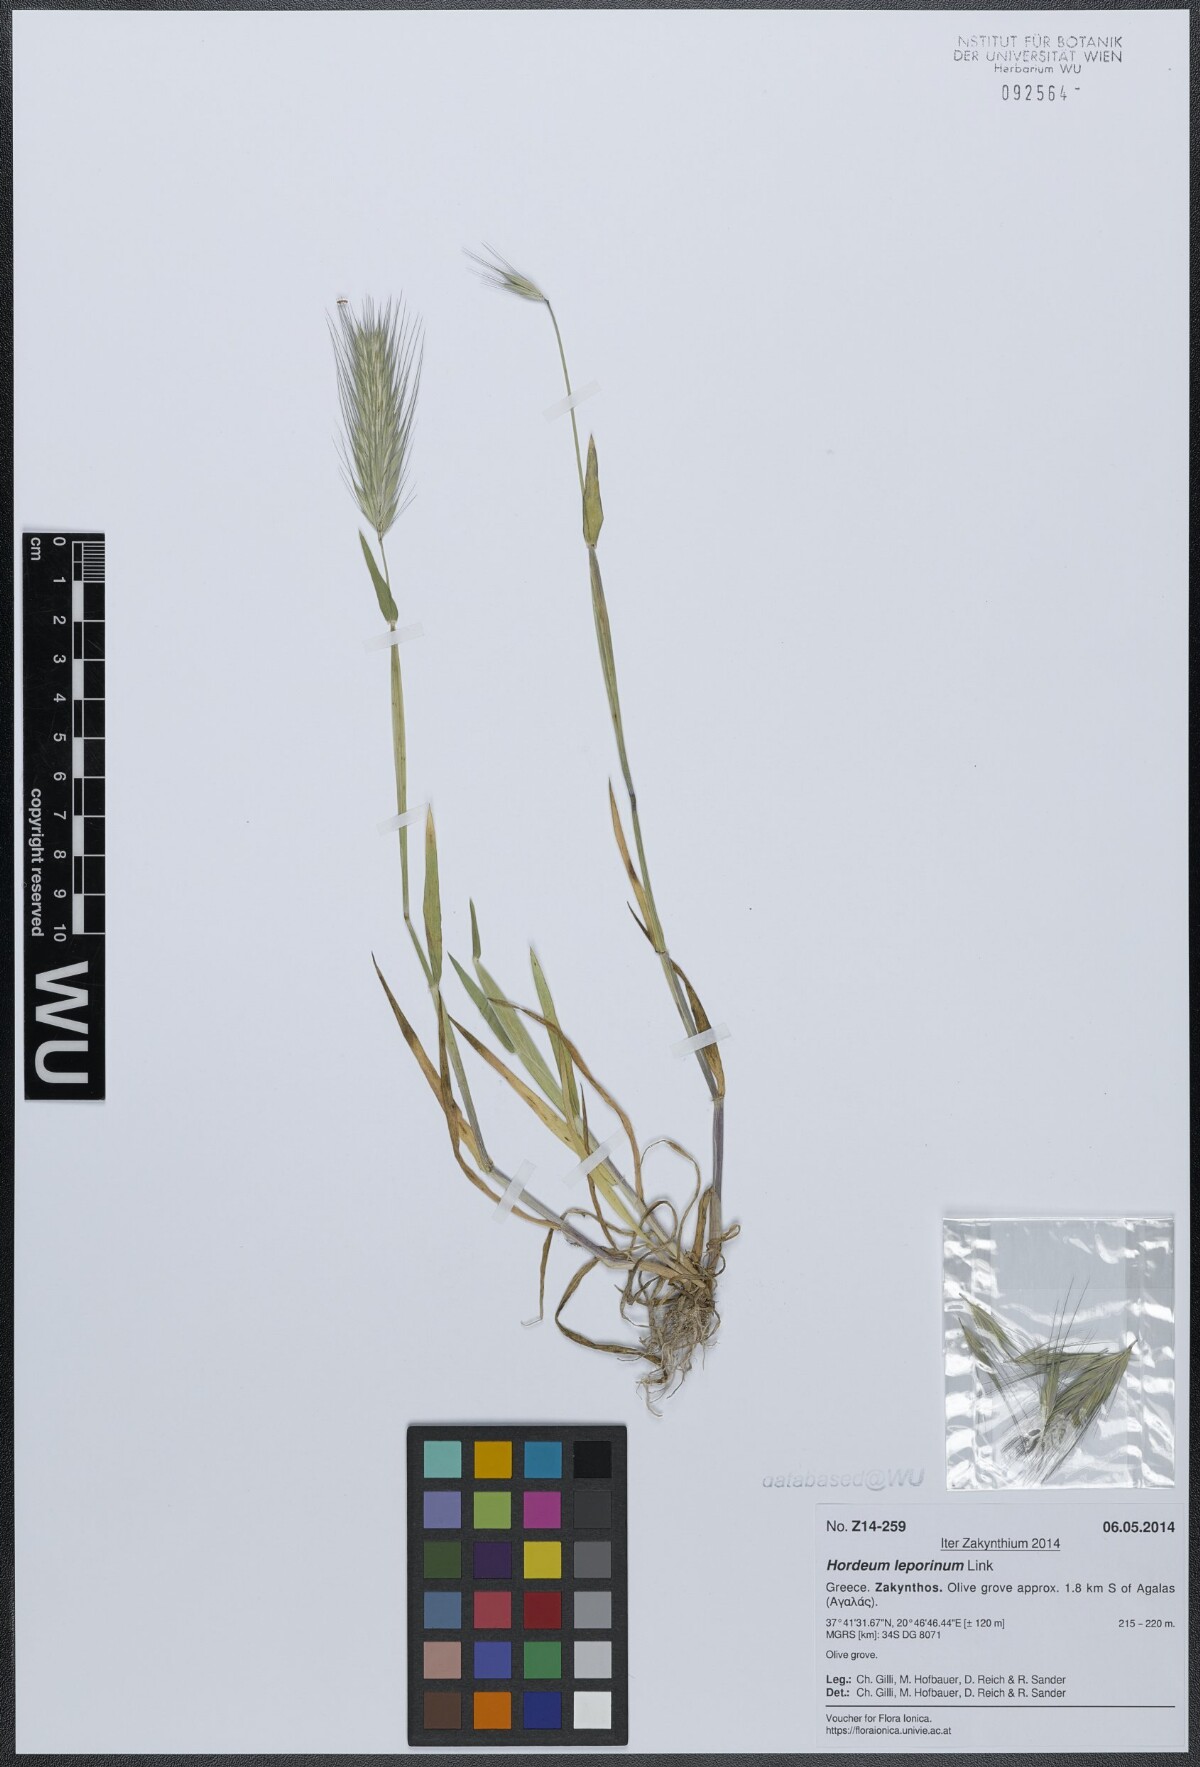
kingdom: Plantae
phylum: Tracheophyta
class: Liliopsida
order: Poales
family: Poaceae
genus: Hordeum
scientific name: Hordeum murinum
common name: Wall barley
